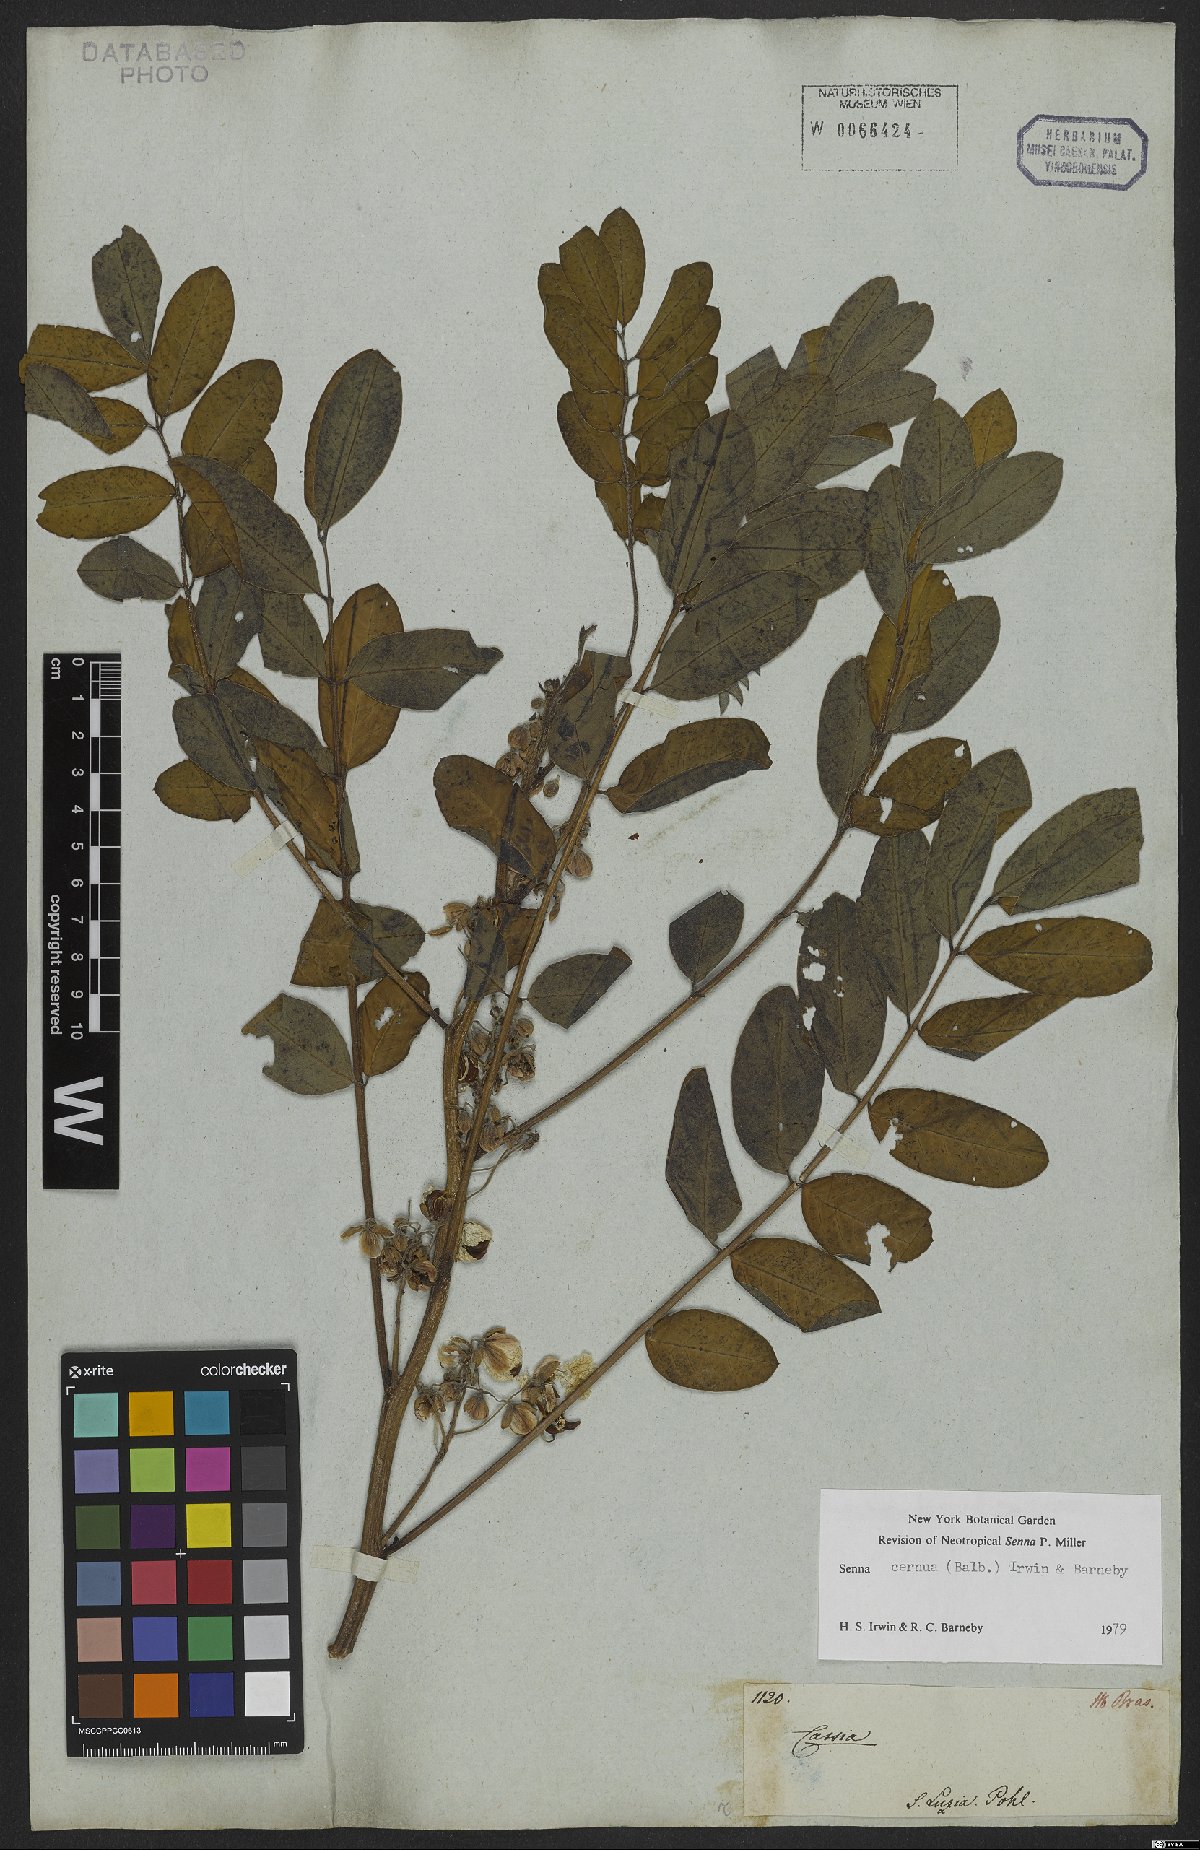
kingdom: Plantae
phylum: Tracheophyta
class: Magnoliopsida
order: Fabales
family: Fabaceae
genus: Senna
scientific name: Senna cernua
